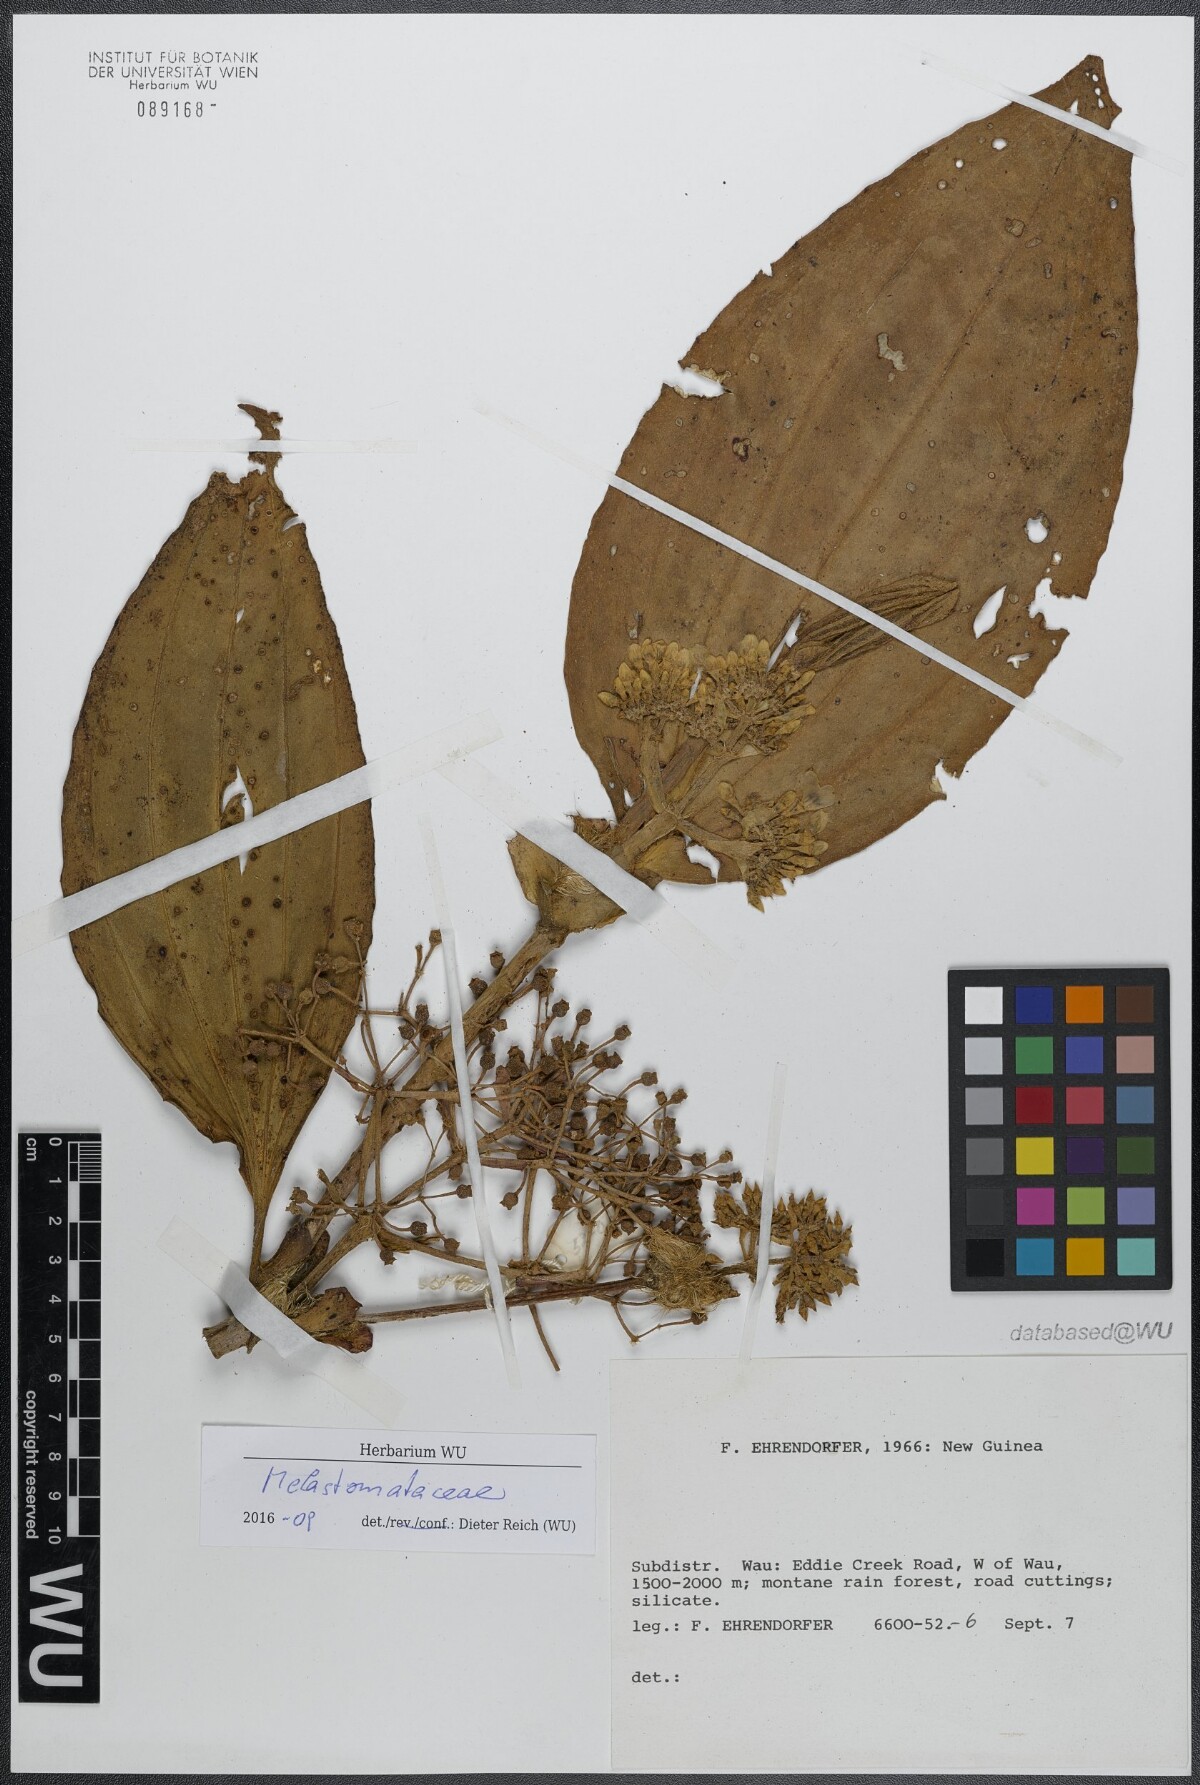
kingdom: Plantae
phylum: Tracheophyta
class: Magnoliopsida
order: Myrtales
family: Melastomataceae
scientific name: Melastomataceae
